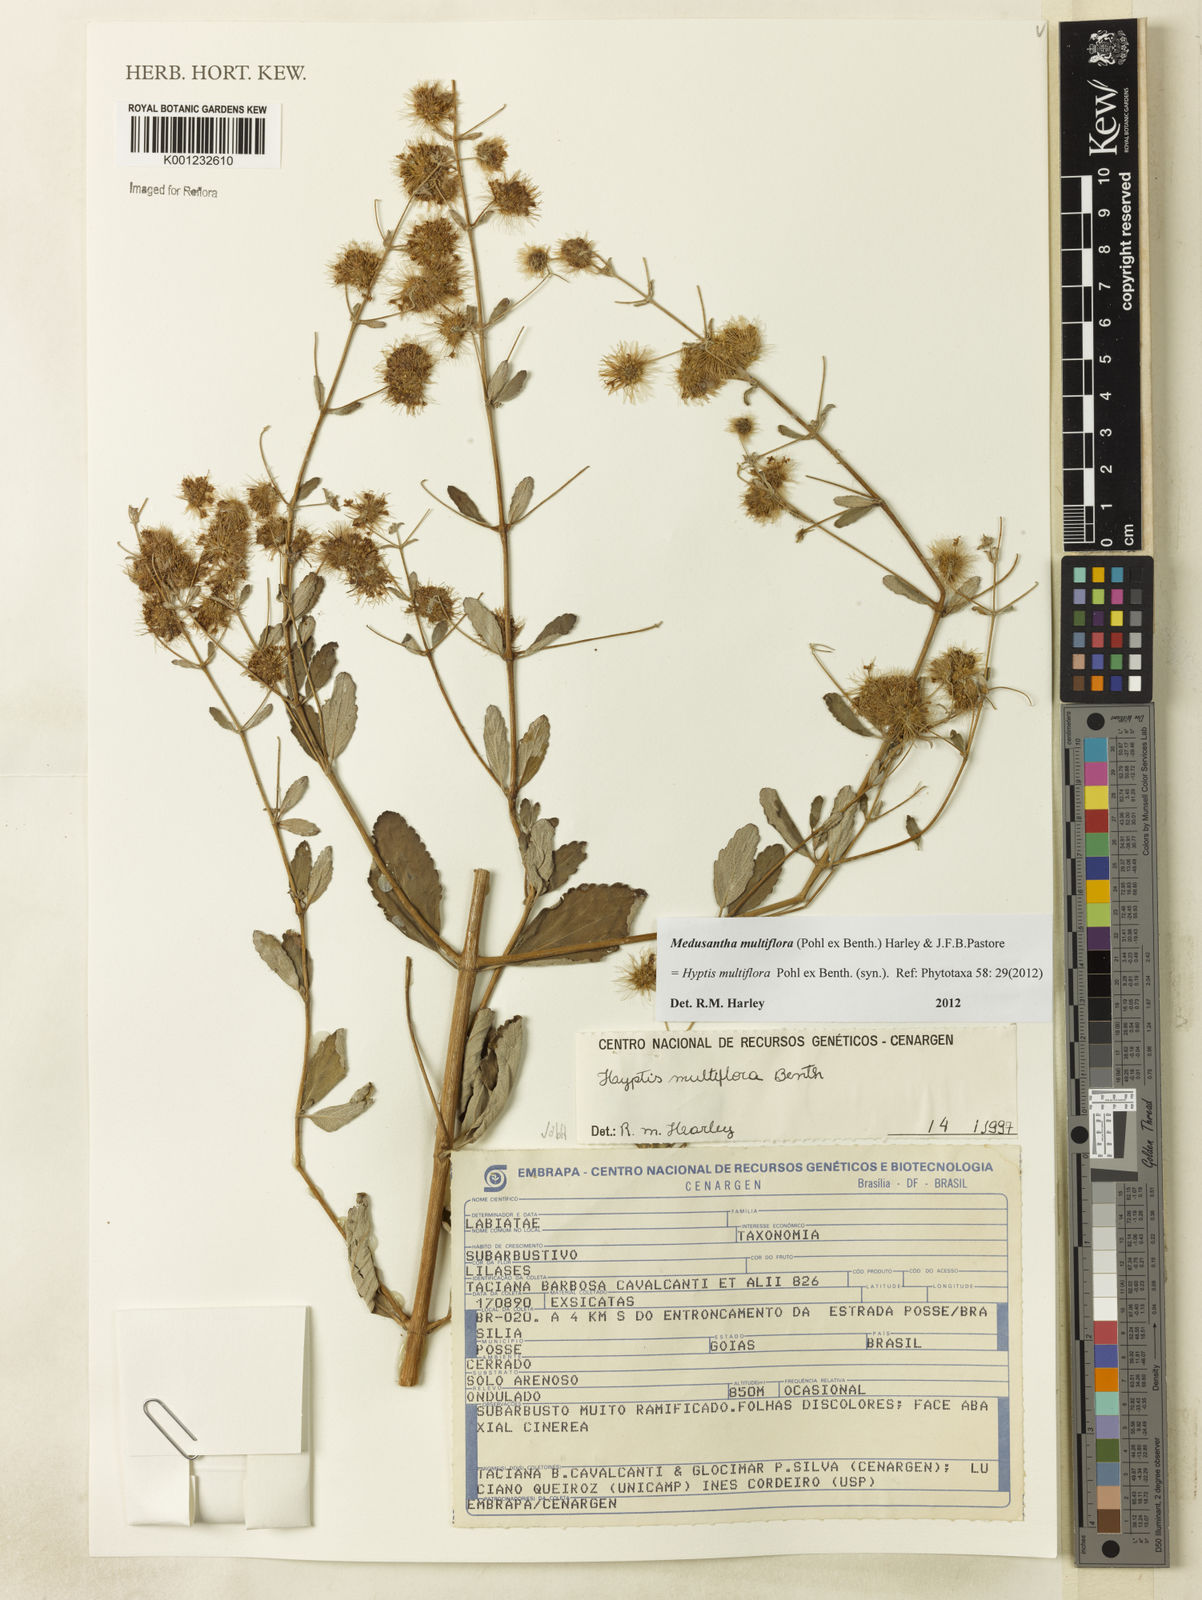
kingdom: Plantae
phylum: Tracheophyta
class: Magnoliopsida
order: Lamiales
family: Lamiaceae
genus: Medusantha
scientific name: Medusantha multiflora
